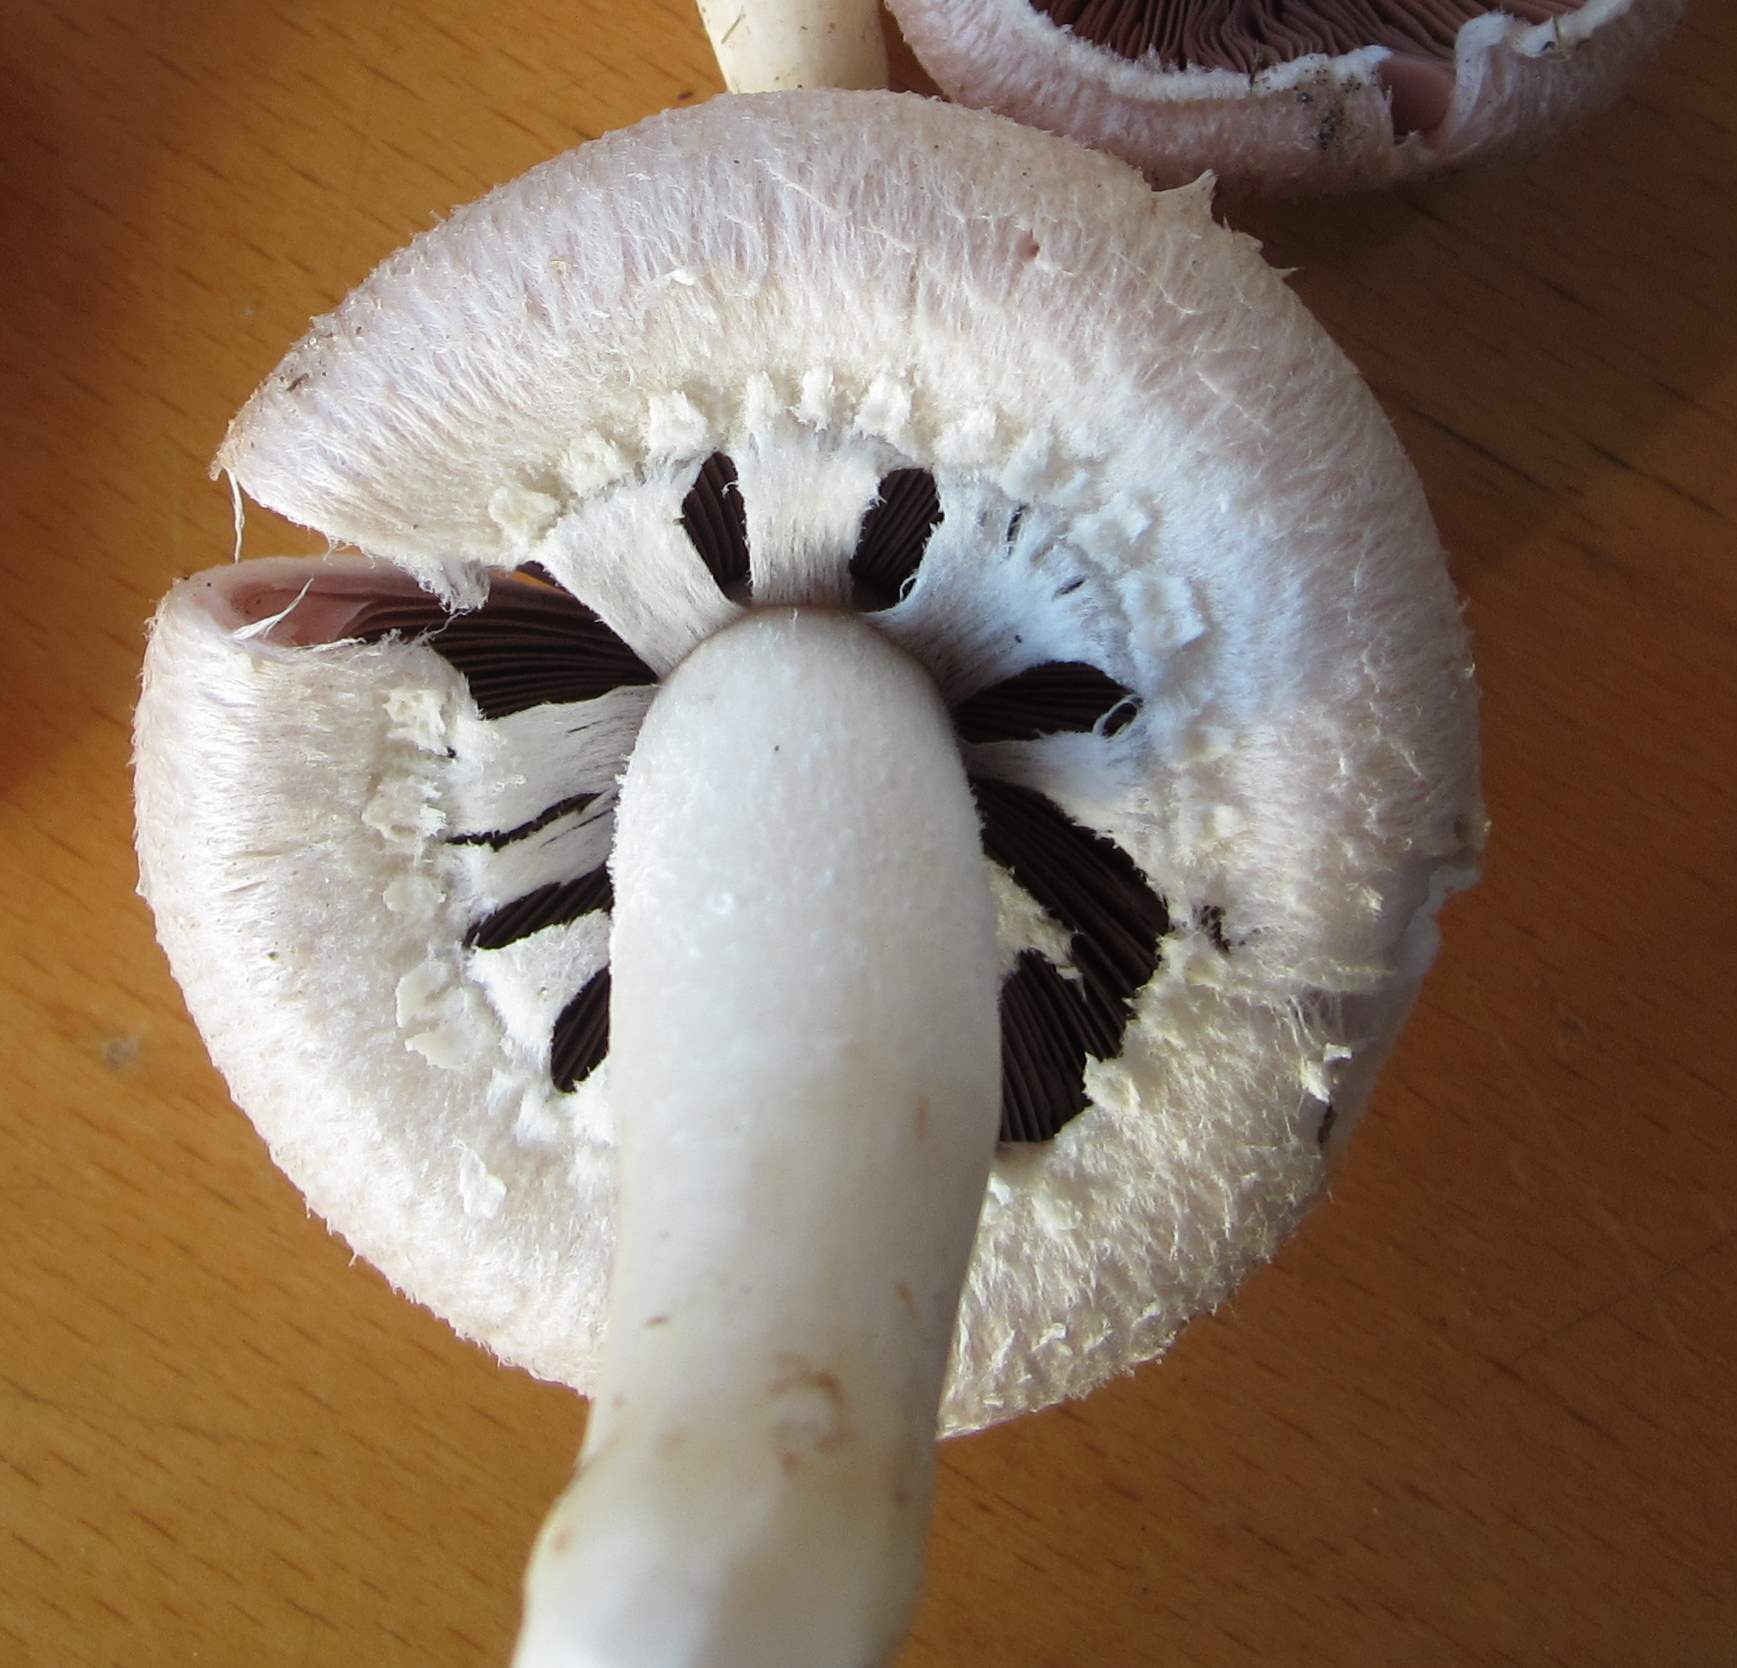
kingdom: Fungi
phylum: Basidiomycota
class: Agaricomycetes
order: Agaricales
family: Agaricaceae
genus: Agaricus
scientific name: Agaricus arvensis
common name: ager-champignon
